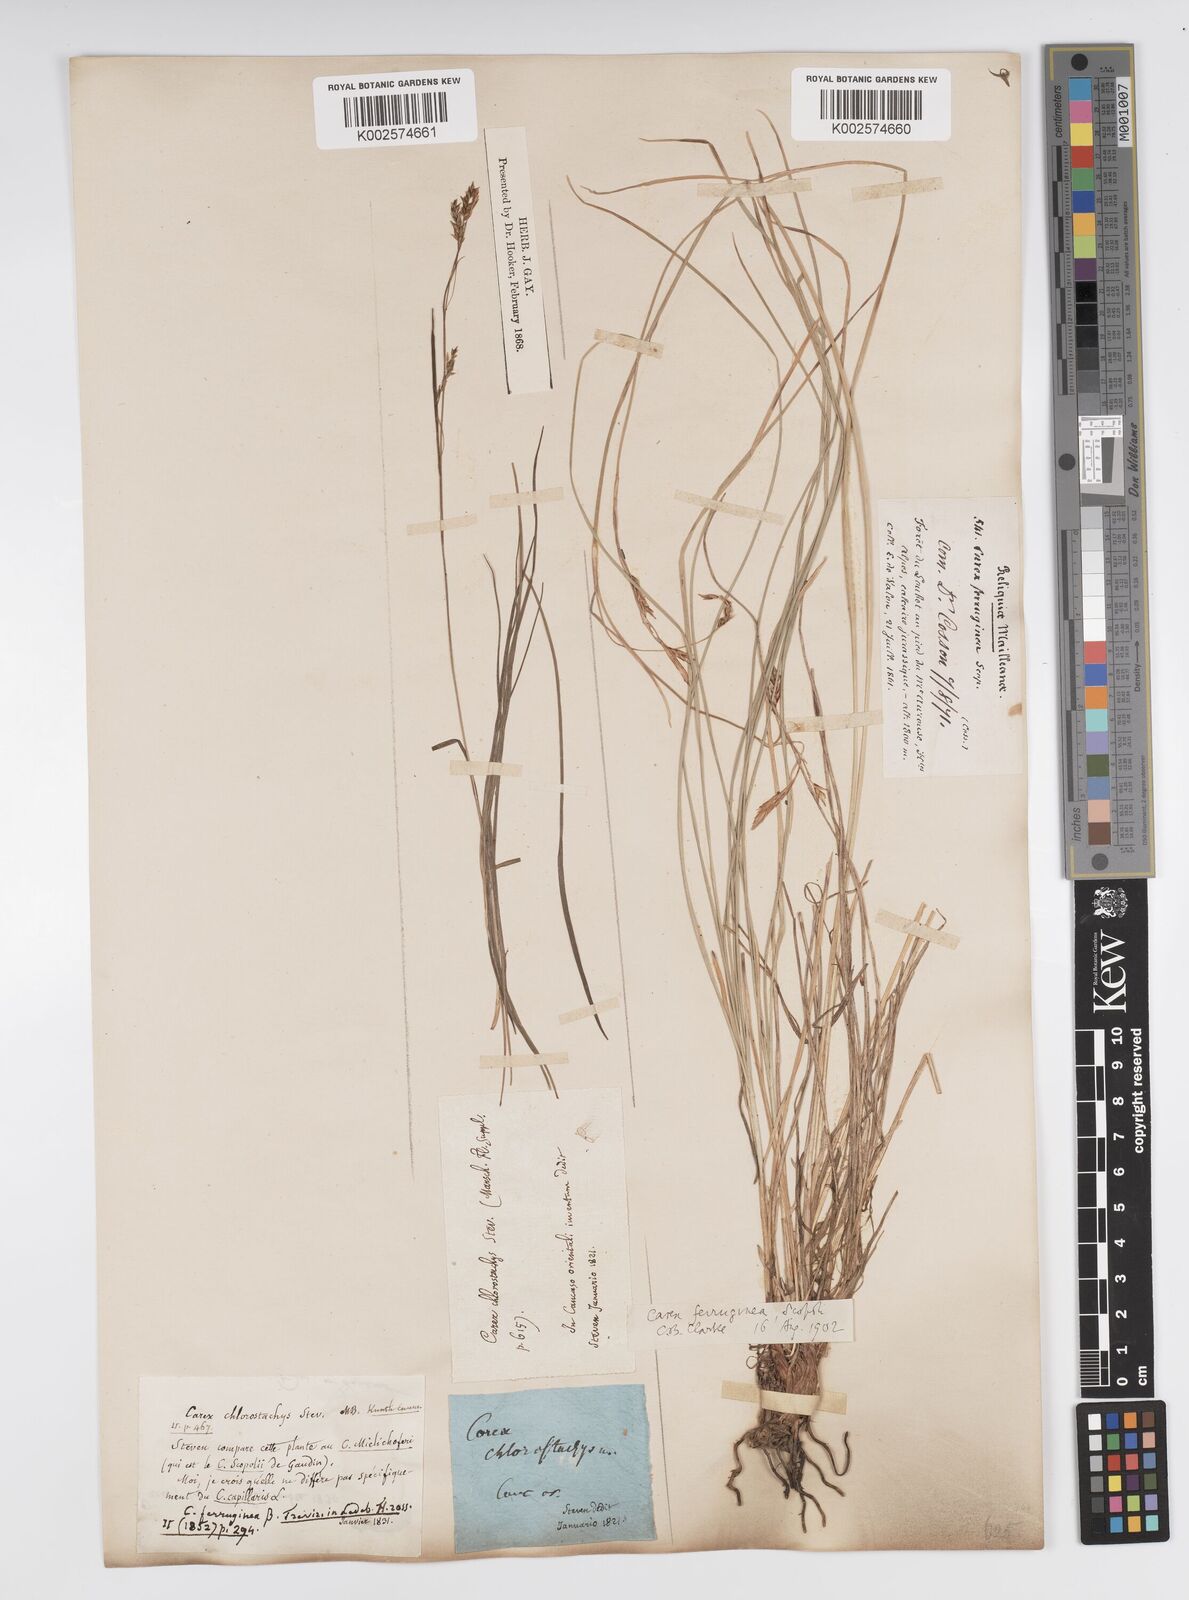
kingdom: Plantae
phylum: Tracheophyta
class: Liliopsida
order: Poales
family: Cyperaceae
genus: Carex
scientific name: Carex ferruginea
